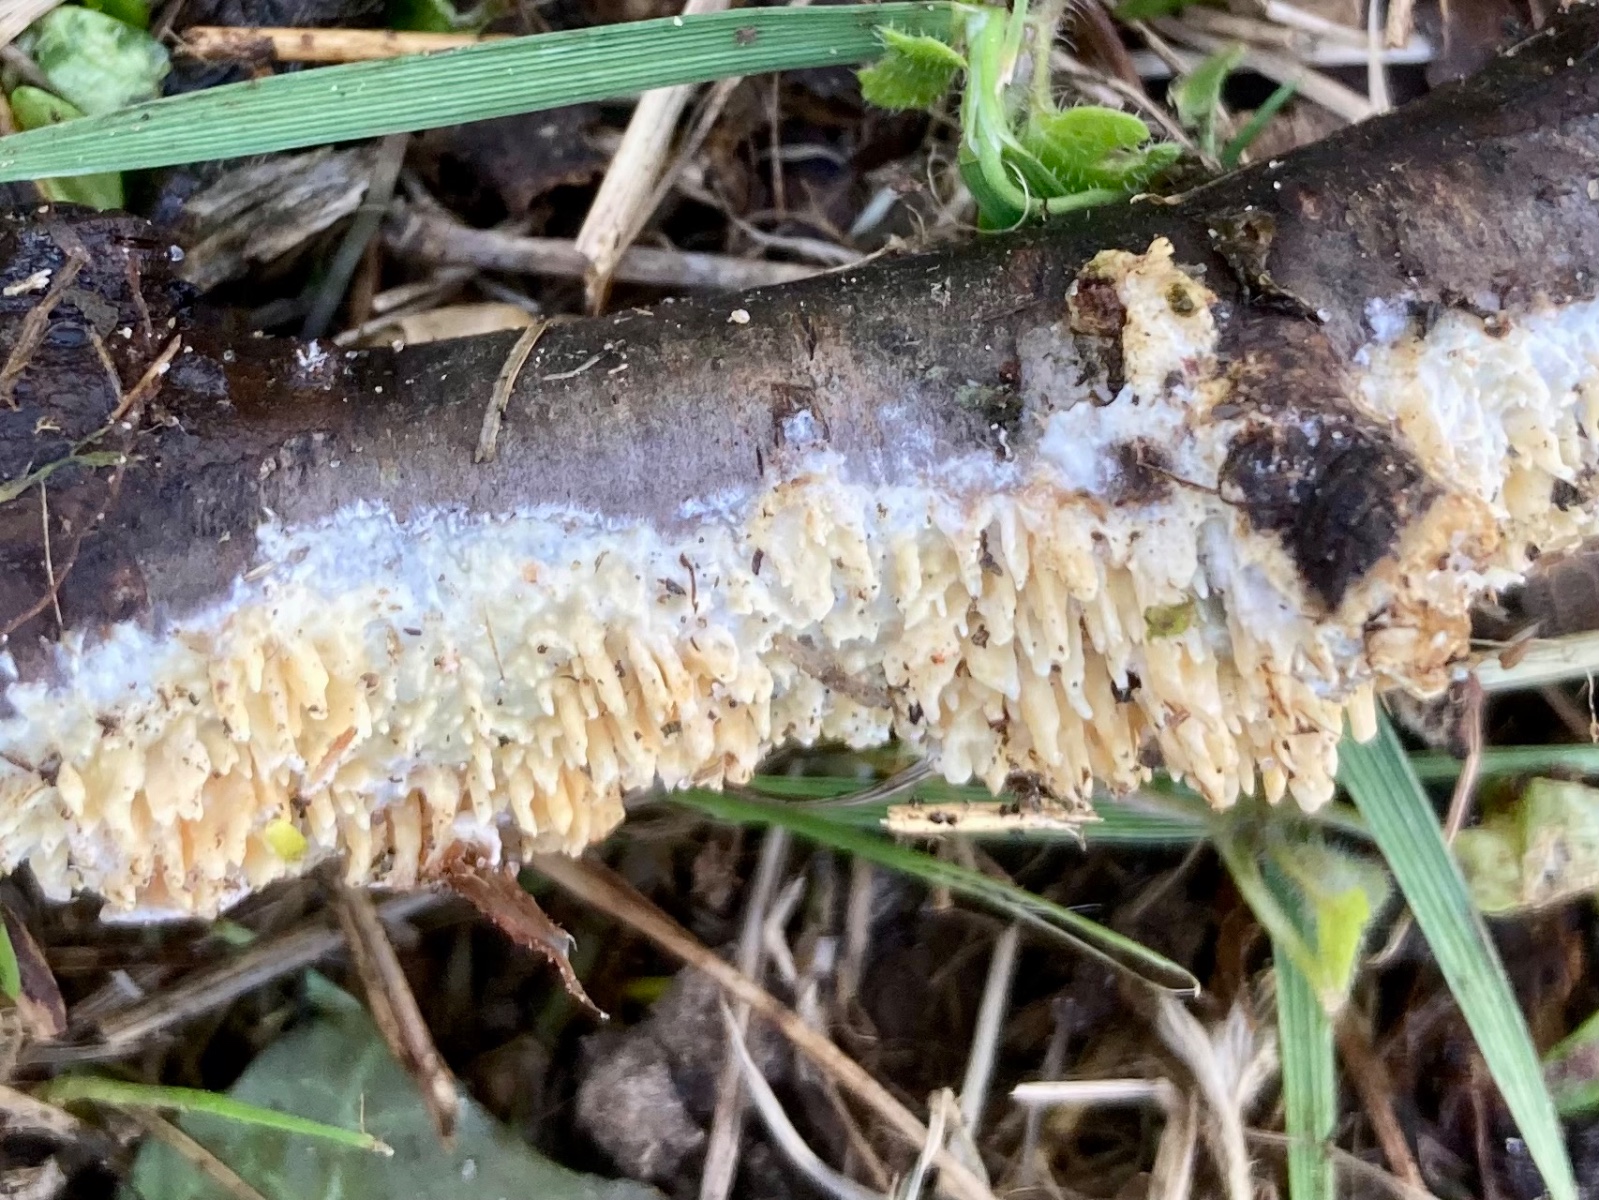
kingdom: Fungi
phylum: Basidiomycota
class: Agaricomycetes
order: Hymenochaetales
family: Schizoporaceae
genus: Xylodon
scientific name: Xylodon radula
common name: grovtandet kalkskind
